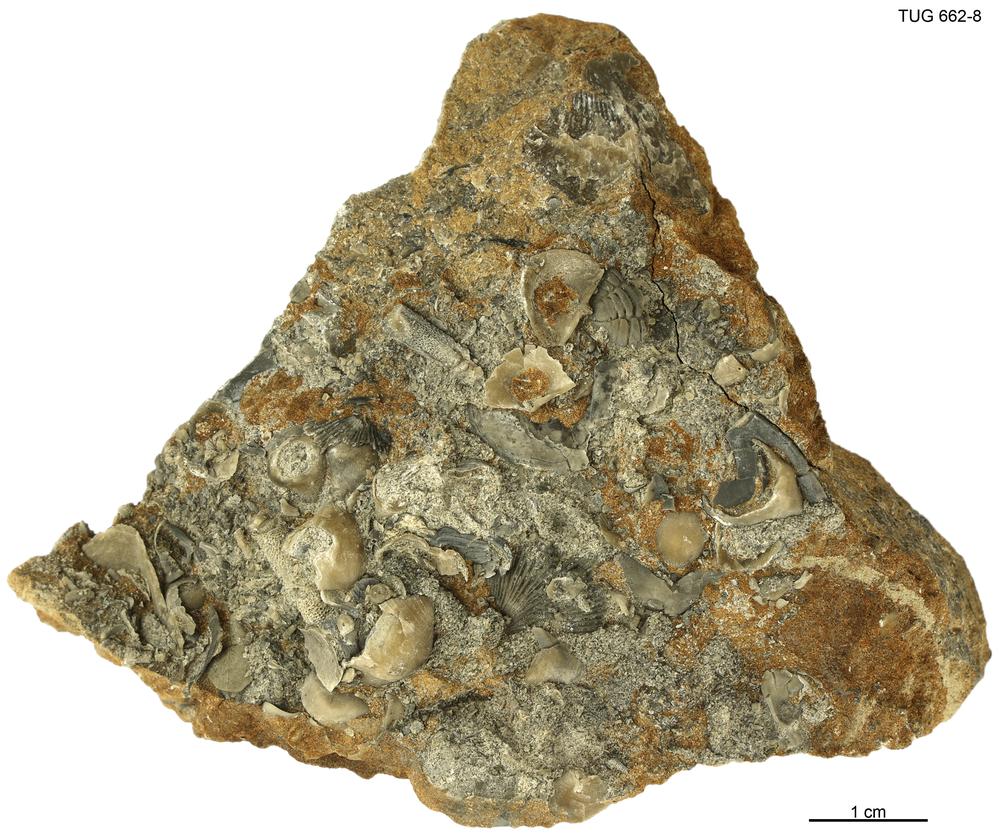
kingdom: Animalia
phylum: Brachiopoda
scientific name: Brachiopoda
